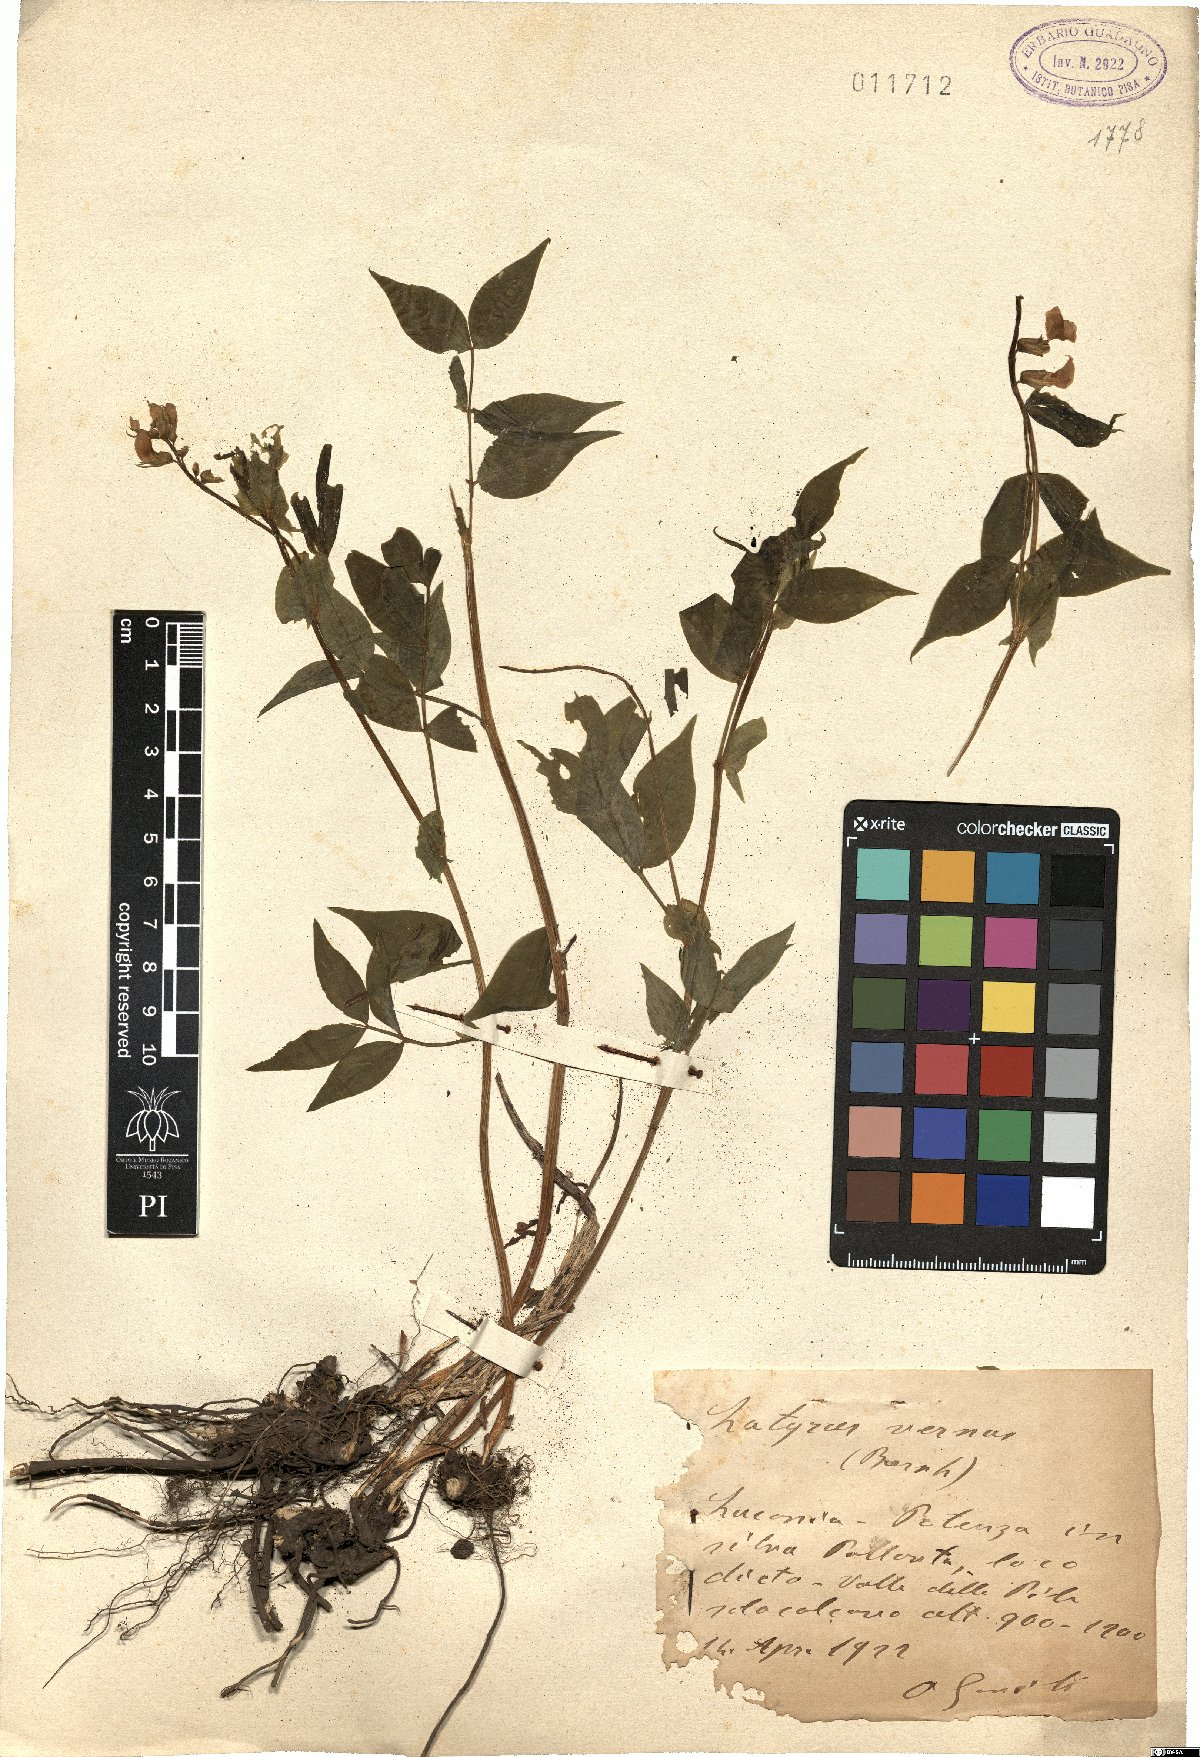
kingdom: Plantae
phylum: Tracheophyta
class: Magnoliopsida
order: Fabales
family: Fabaceae
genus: Lathyrus
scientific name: Lathyrus vernus
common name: Spring pea
